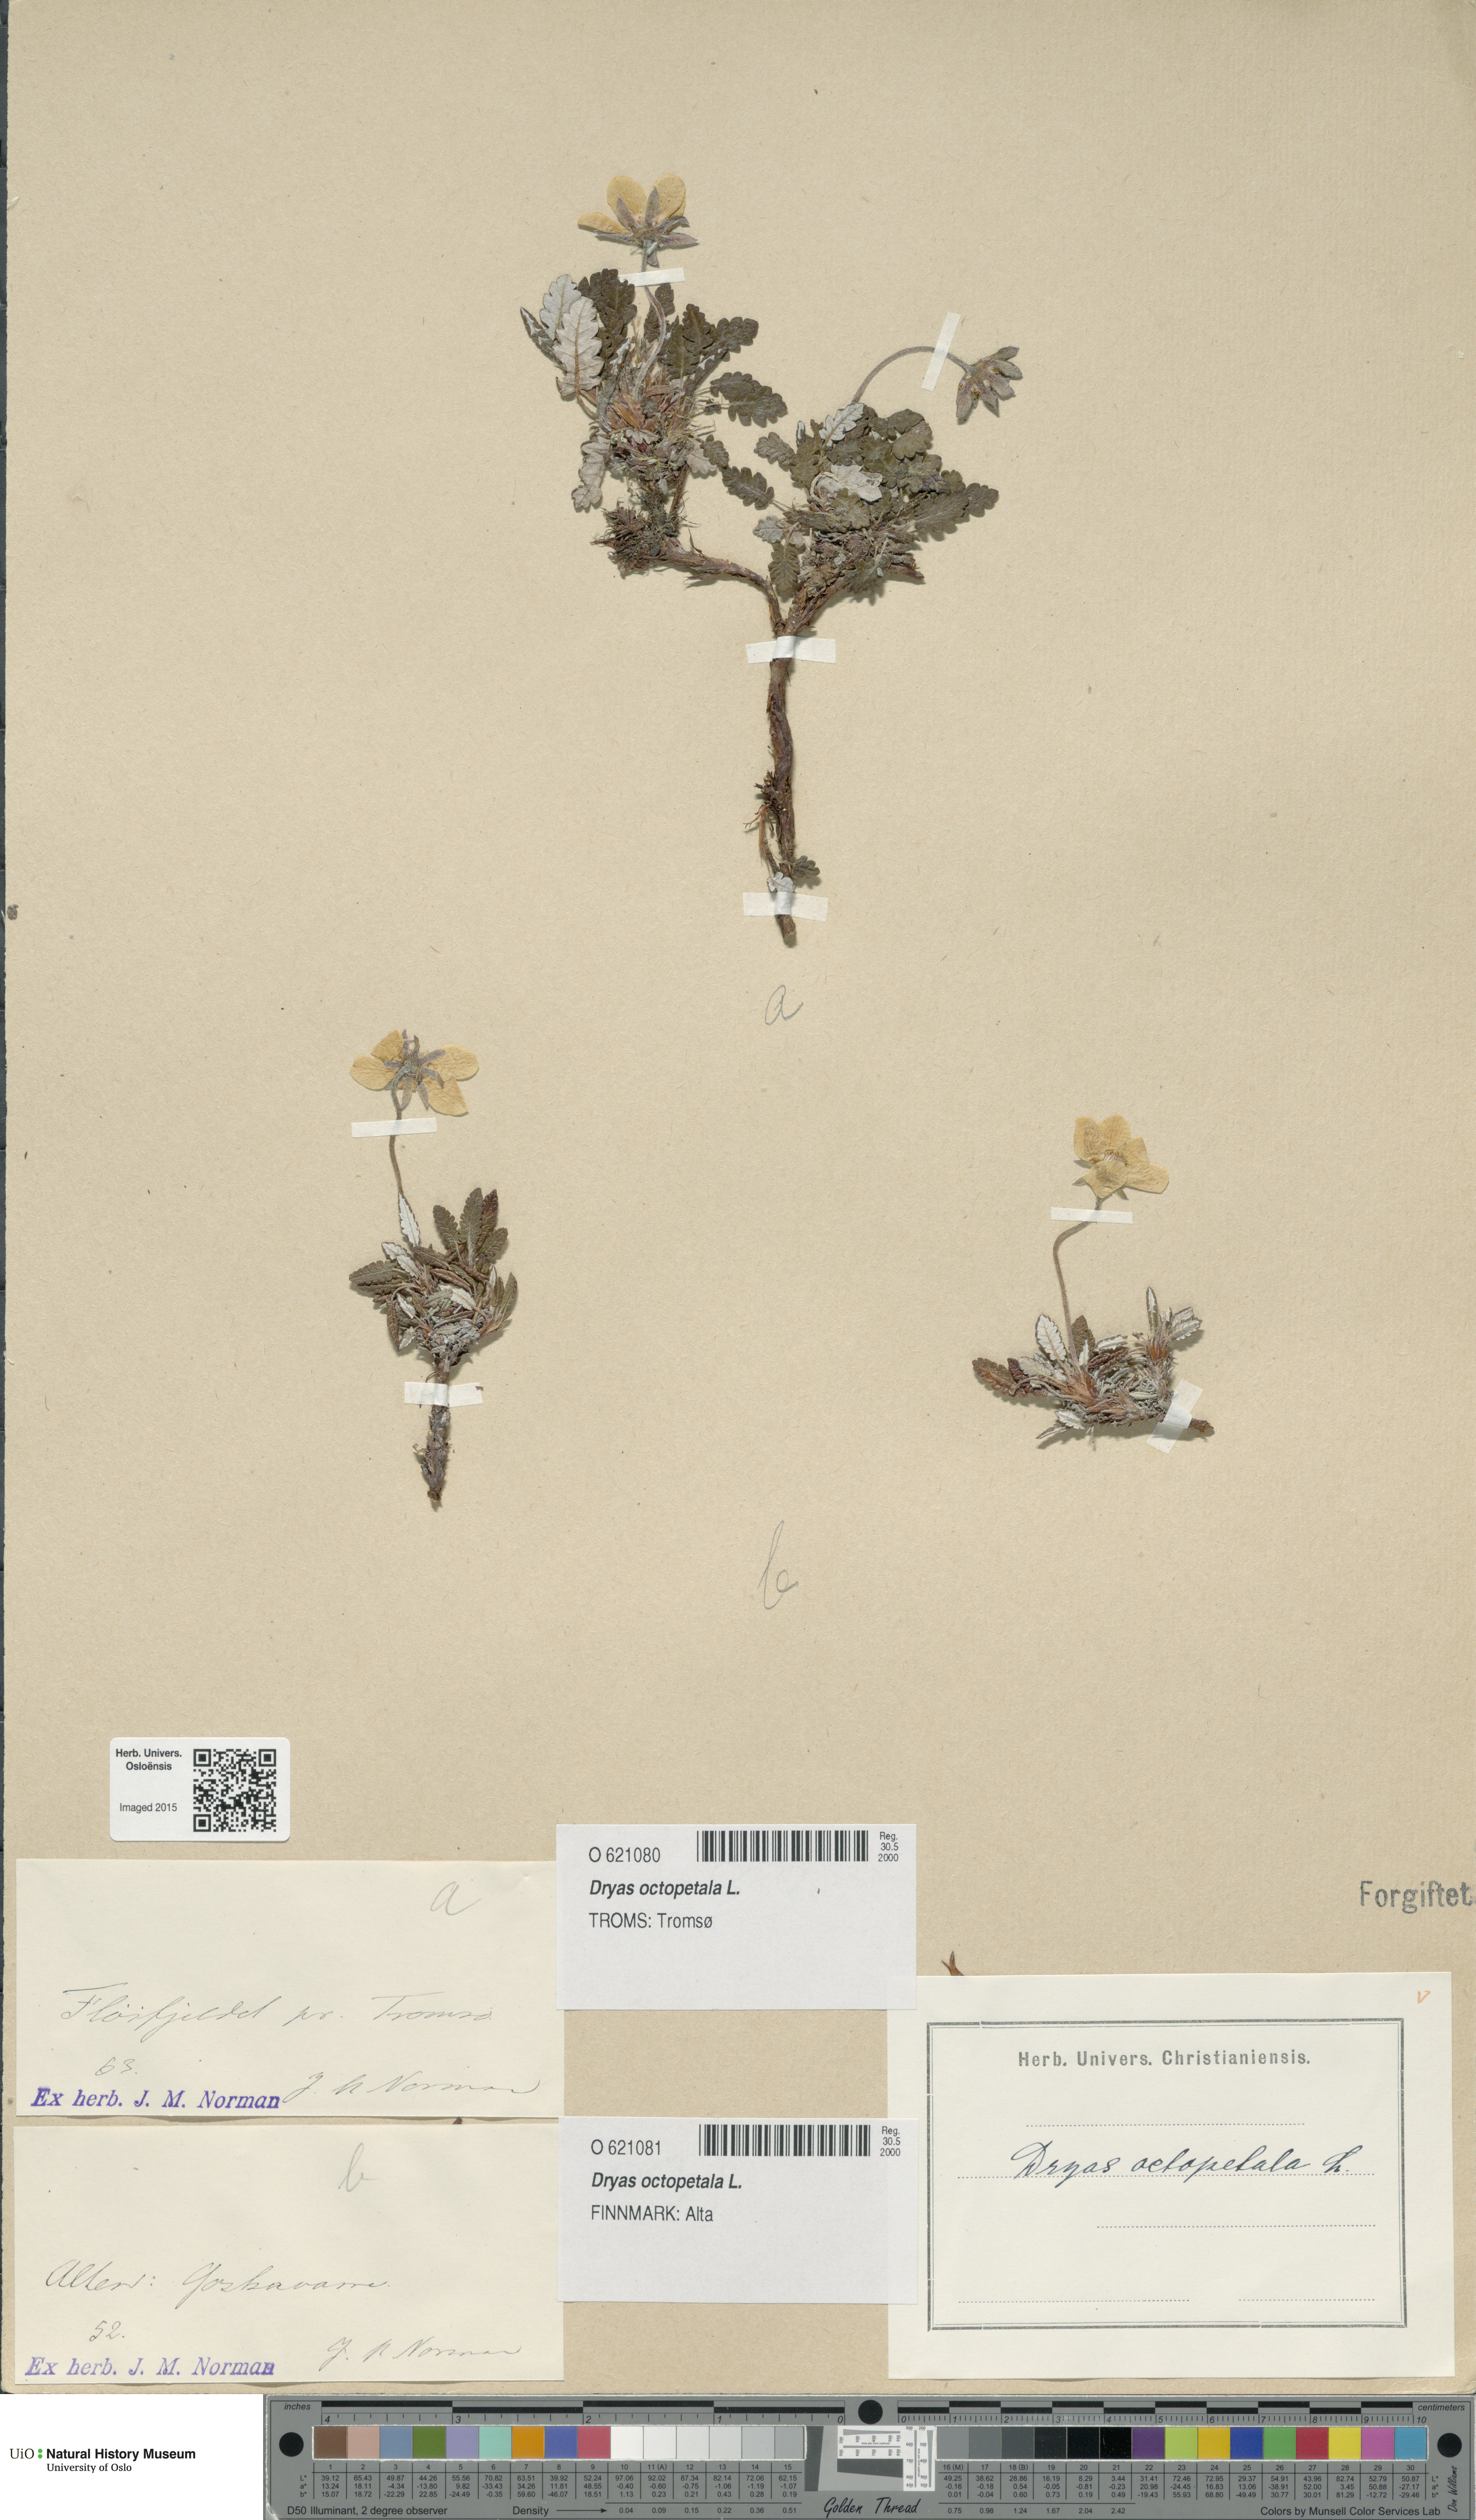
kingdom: Plantae
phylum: Tracheophyta
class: Magnoliopsida
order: Rosales
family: Rosaceae
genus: Dryas
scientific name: Dryas octopetala
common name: Eight-petal mountain-avens
